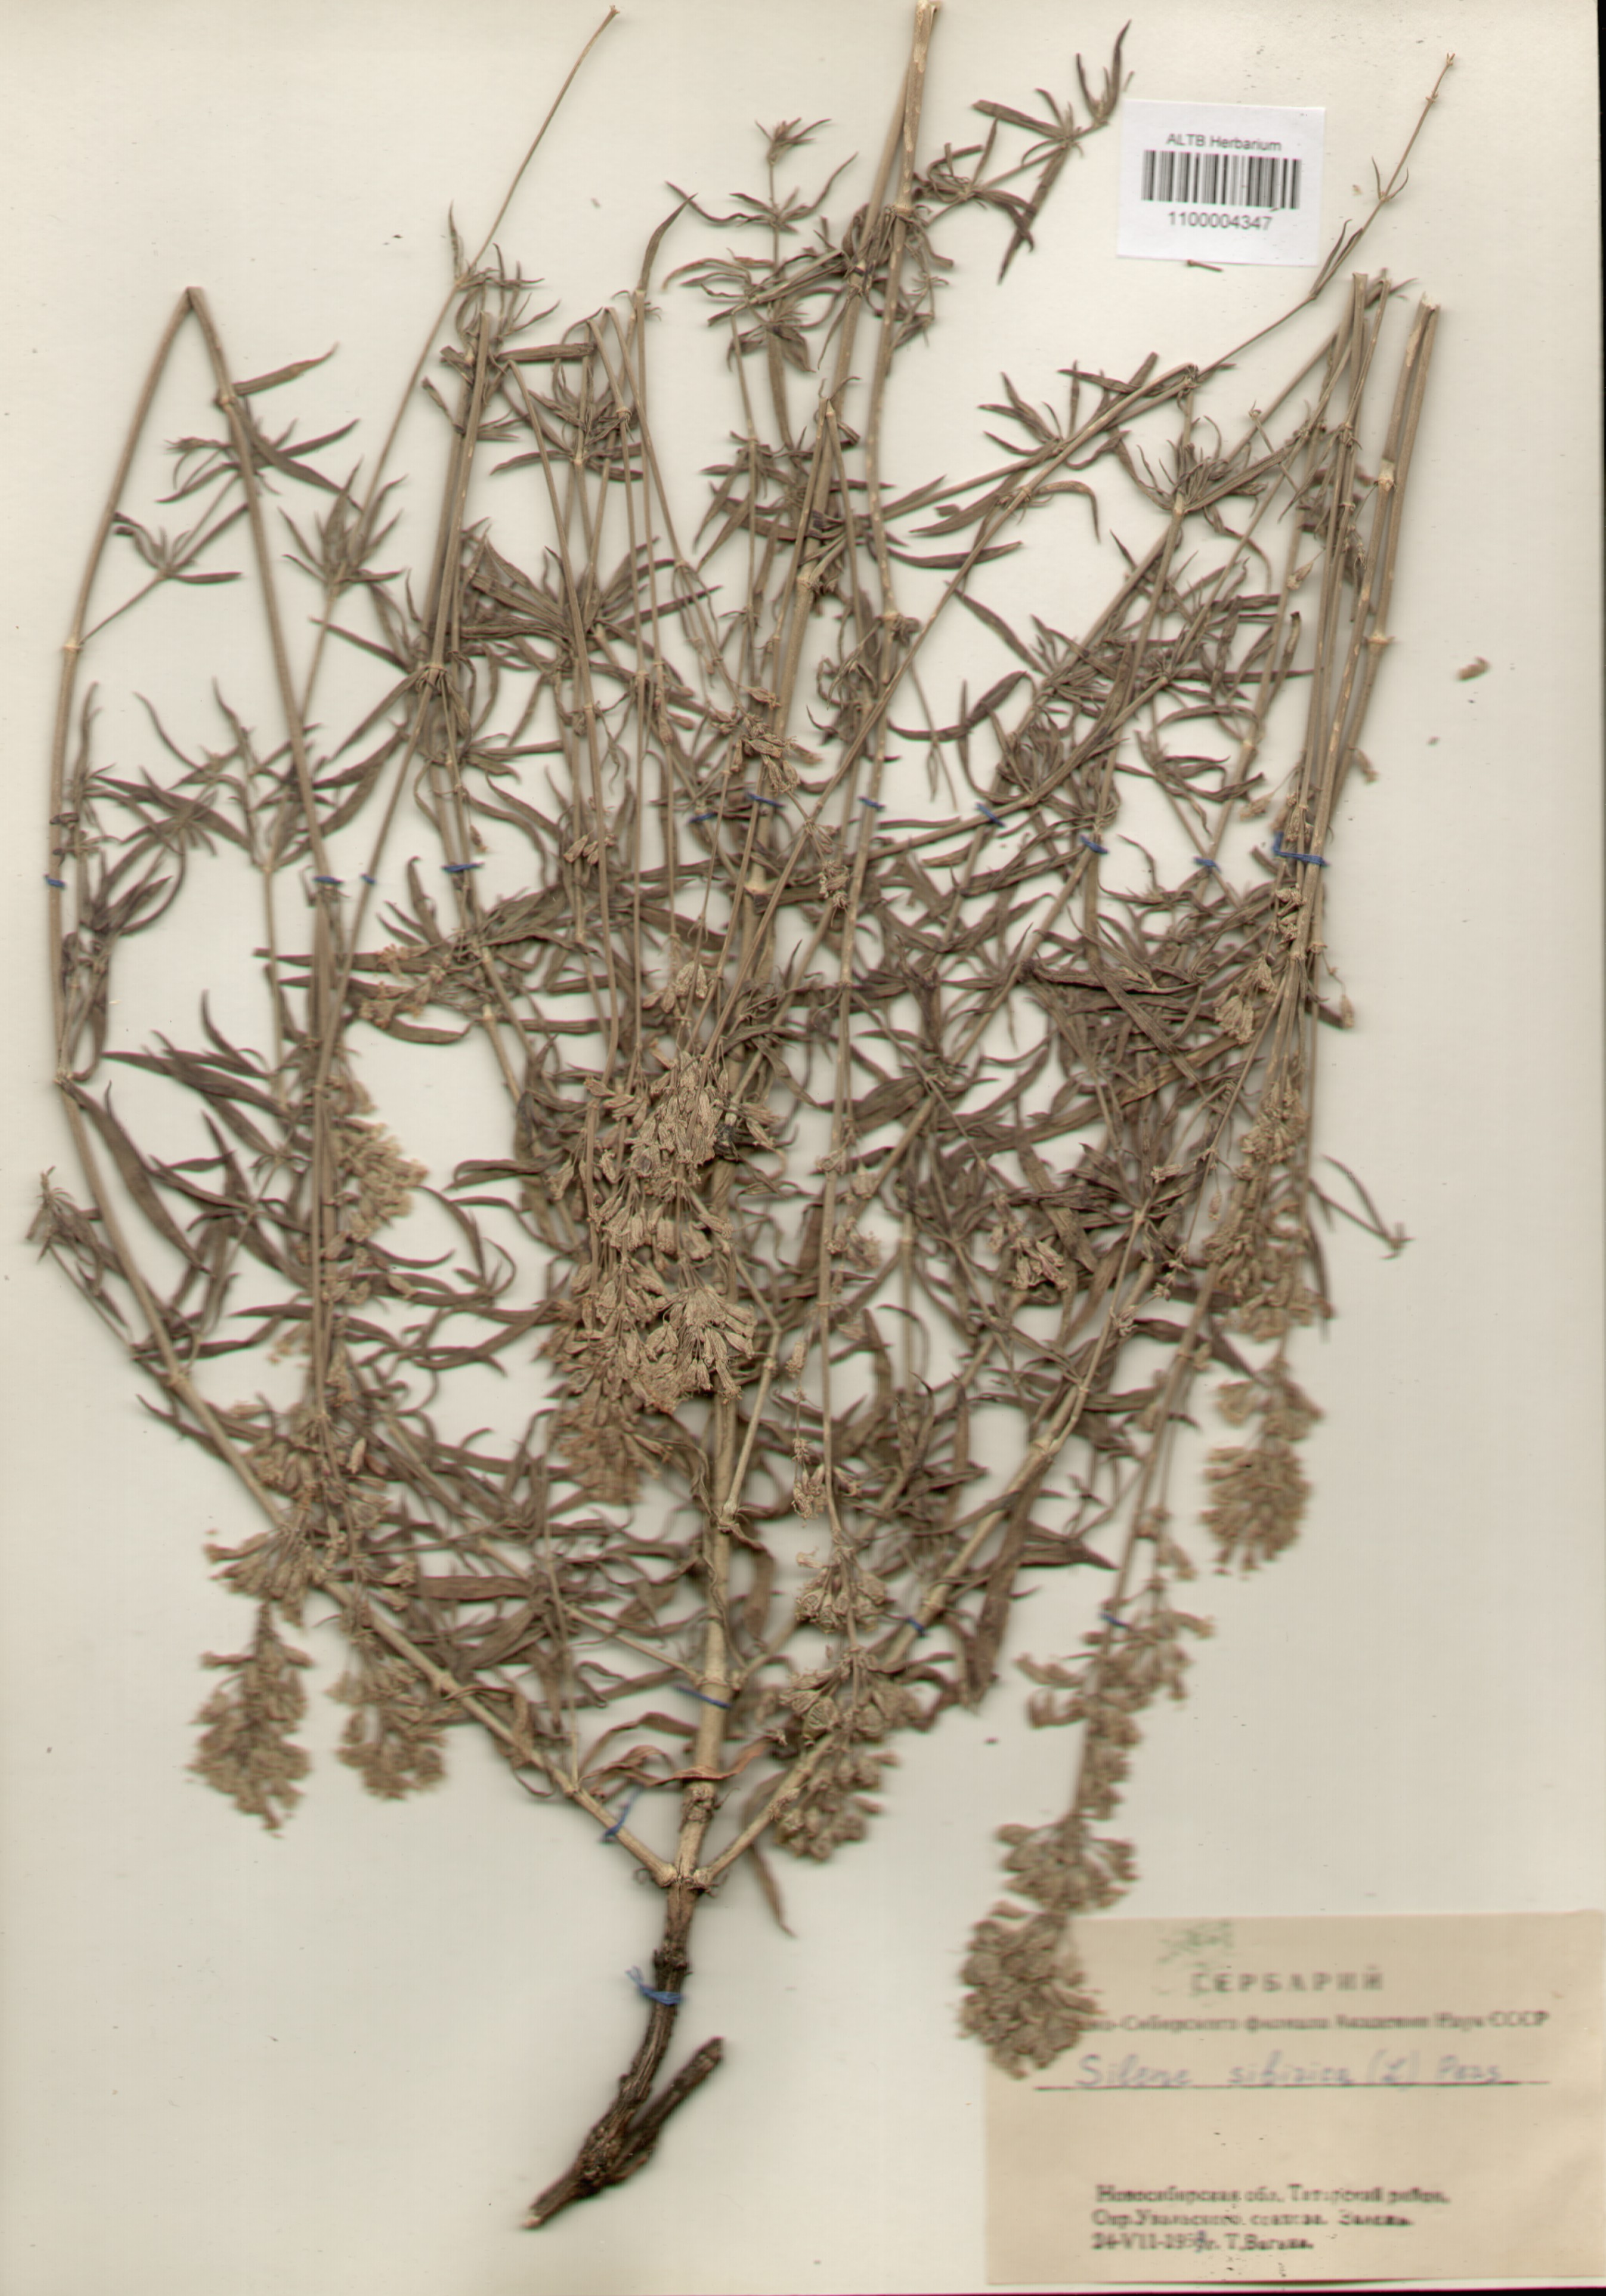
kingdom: Plantae
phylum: Tracheophyta
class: Magnoliopsida
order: Caryophyllales
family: Caryophyllaceae
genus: Silene
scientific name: Silene sibirica
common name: Siberian catchfly
